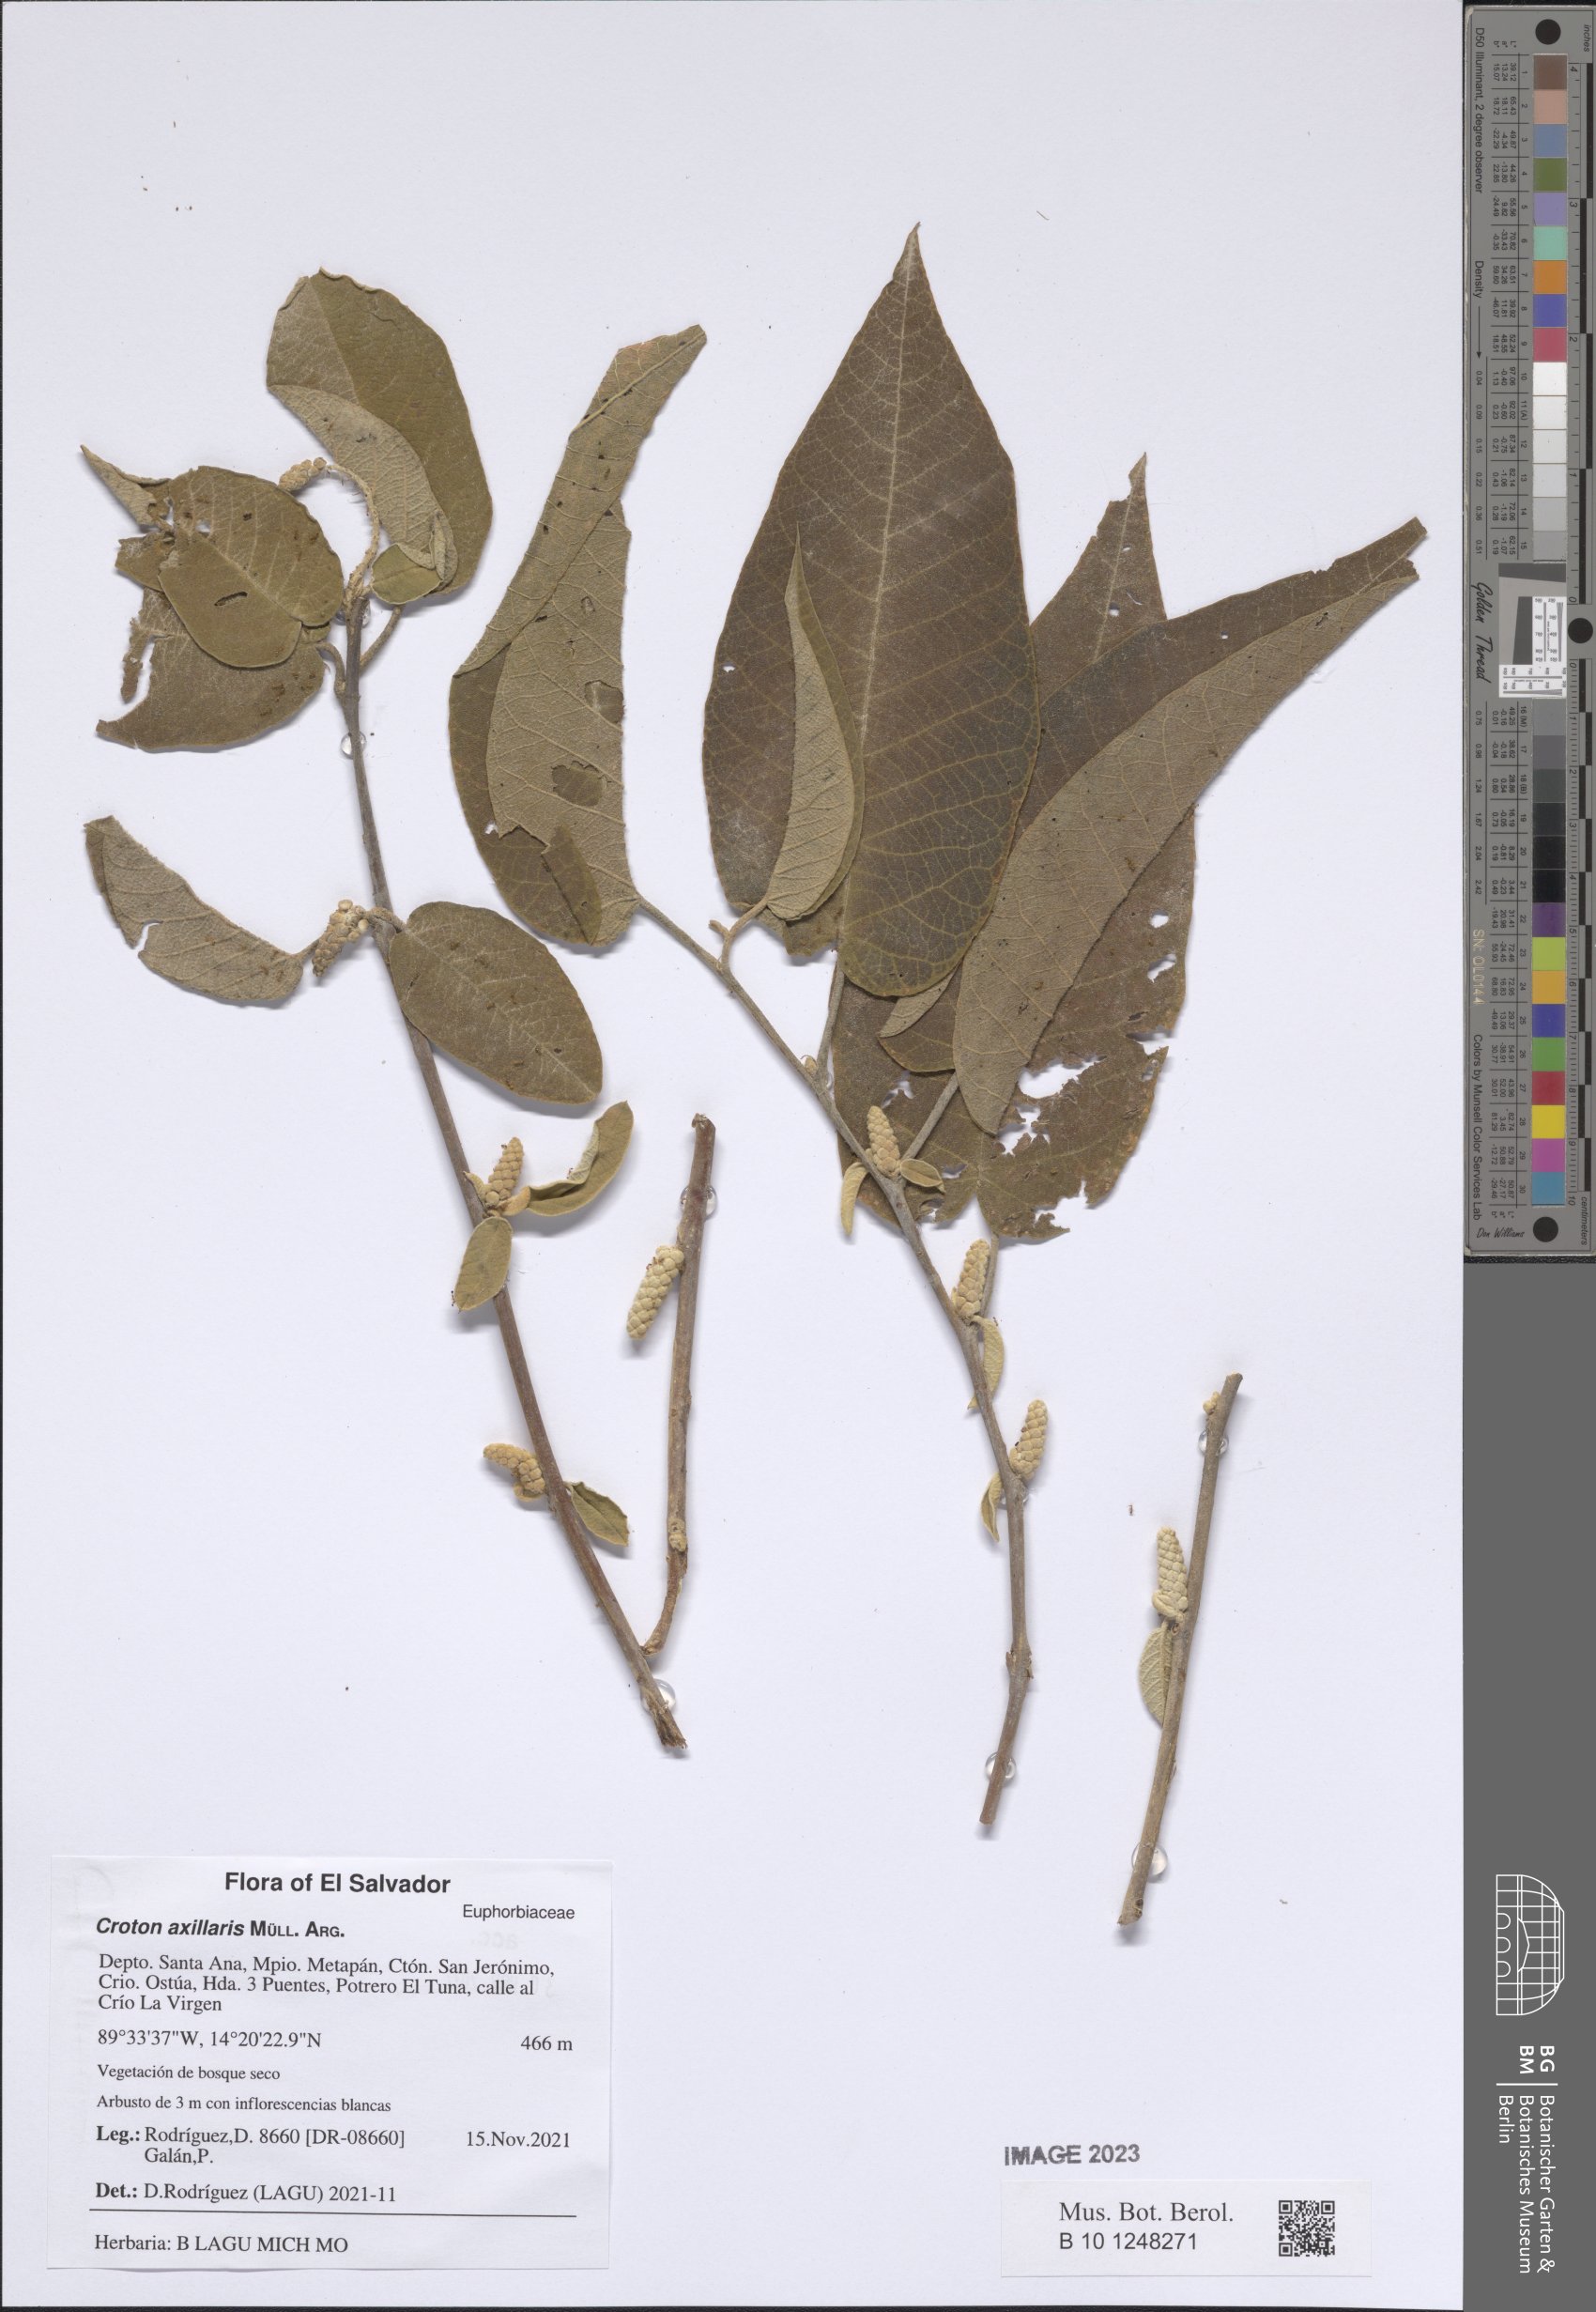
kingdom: Plantae
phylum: Tracheophyta
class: Magnoliopsida
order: Malpighiales
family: Euphorbiaceae
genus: Croton
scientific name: Croton axillaris
